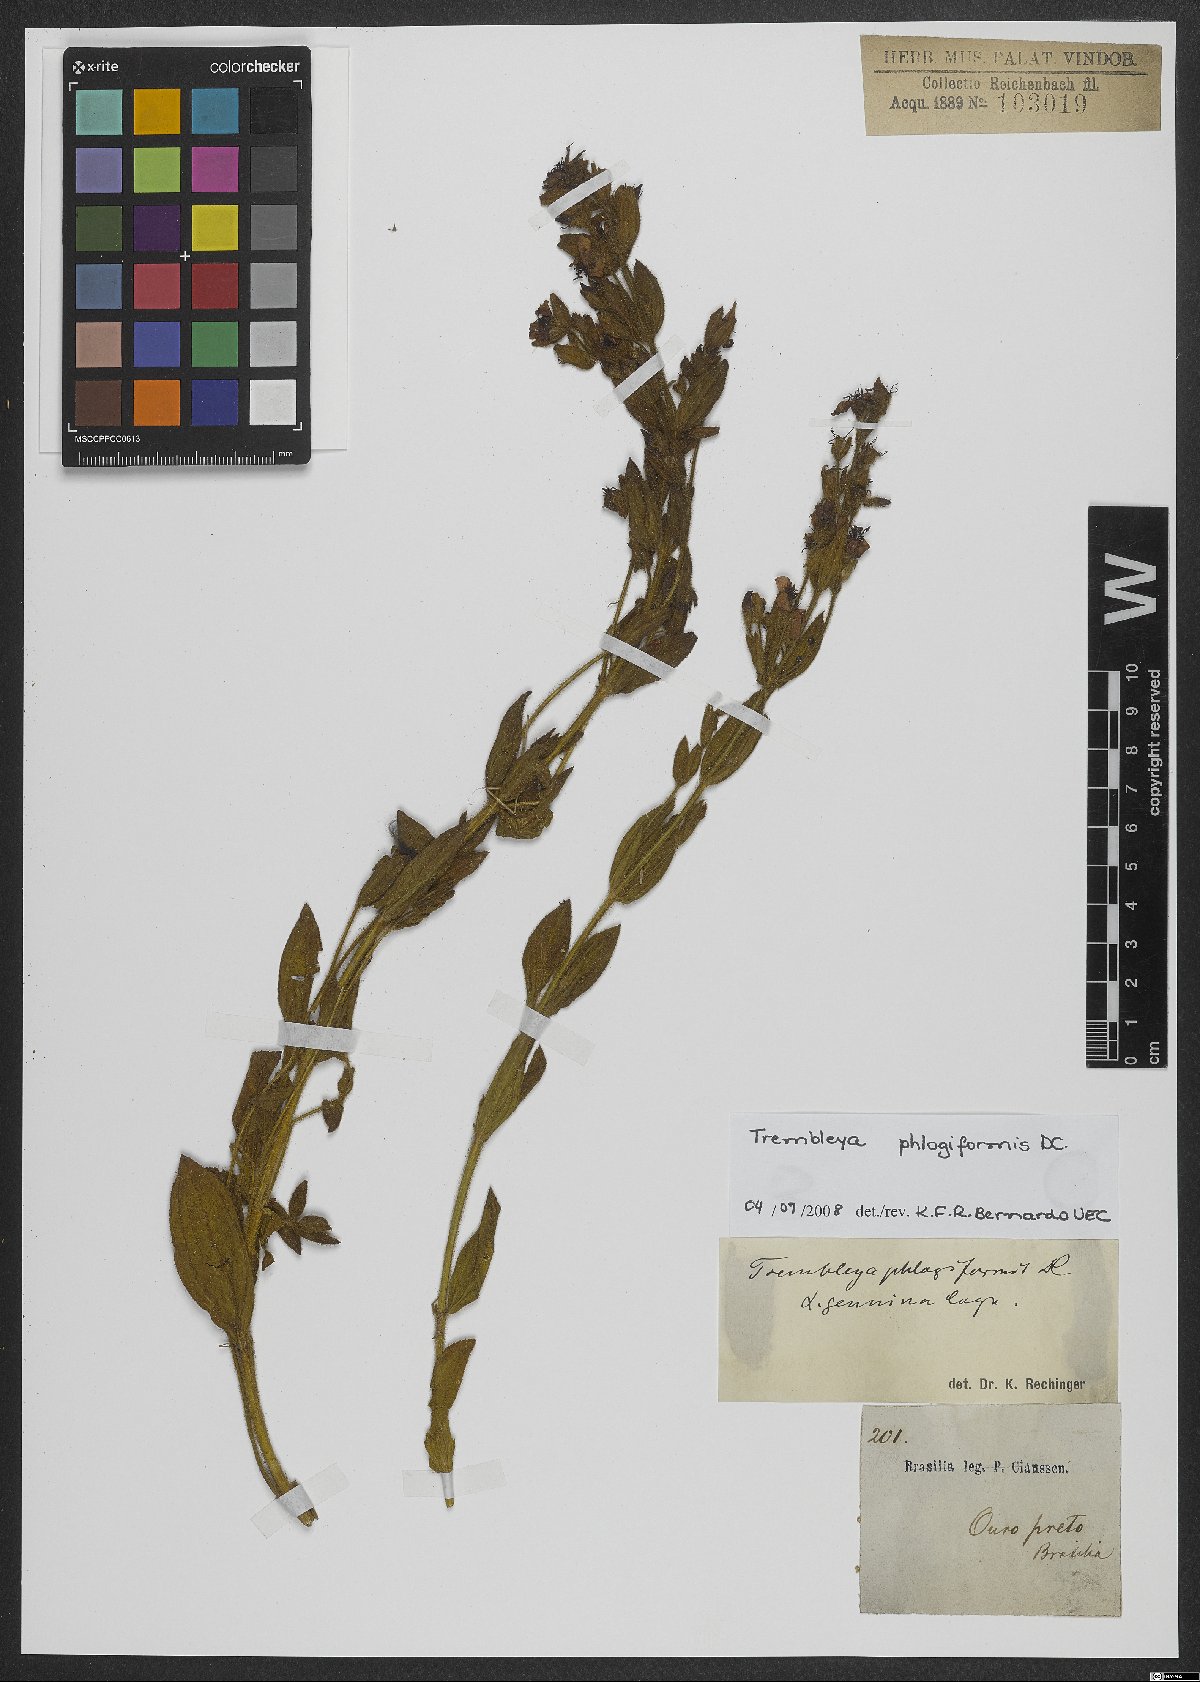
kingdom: Plantae
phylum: Tracheophyta
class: Magnoliopsida
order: Myrtales
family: Melastomataceae
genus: Microlicia
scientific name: Microlicia phlogiformis
